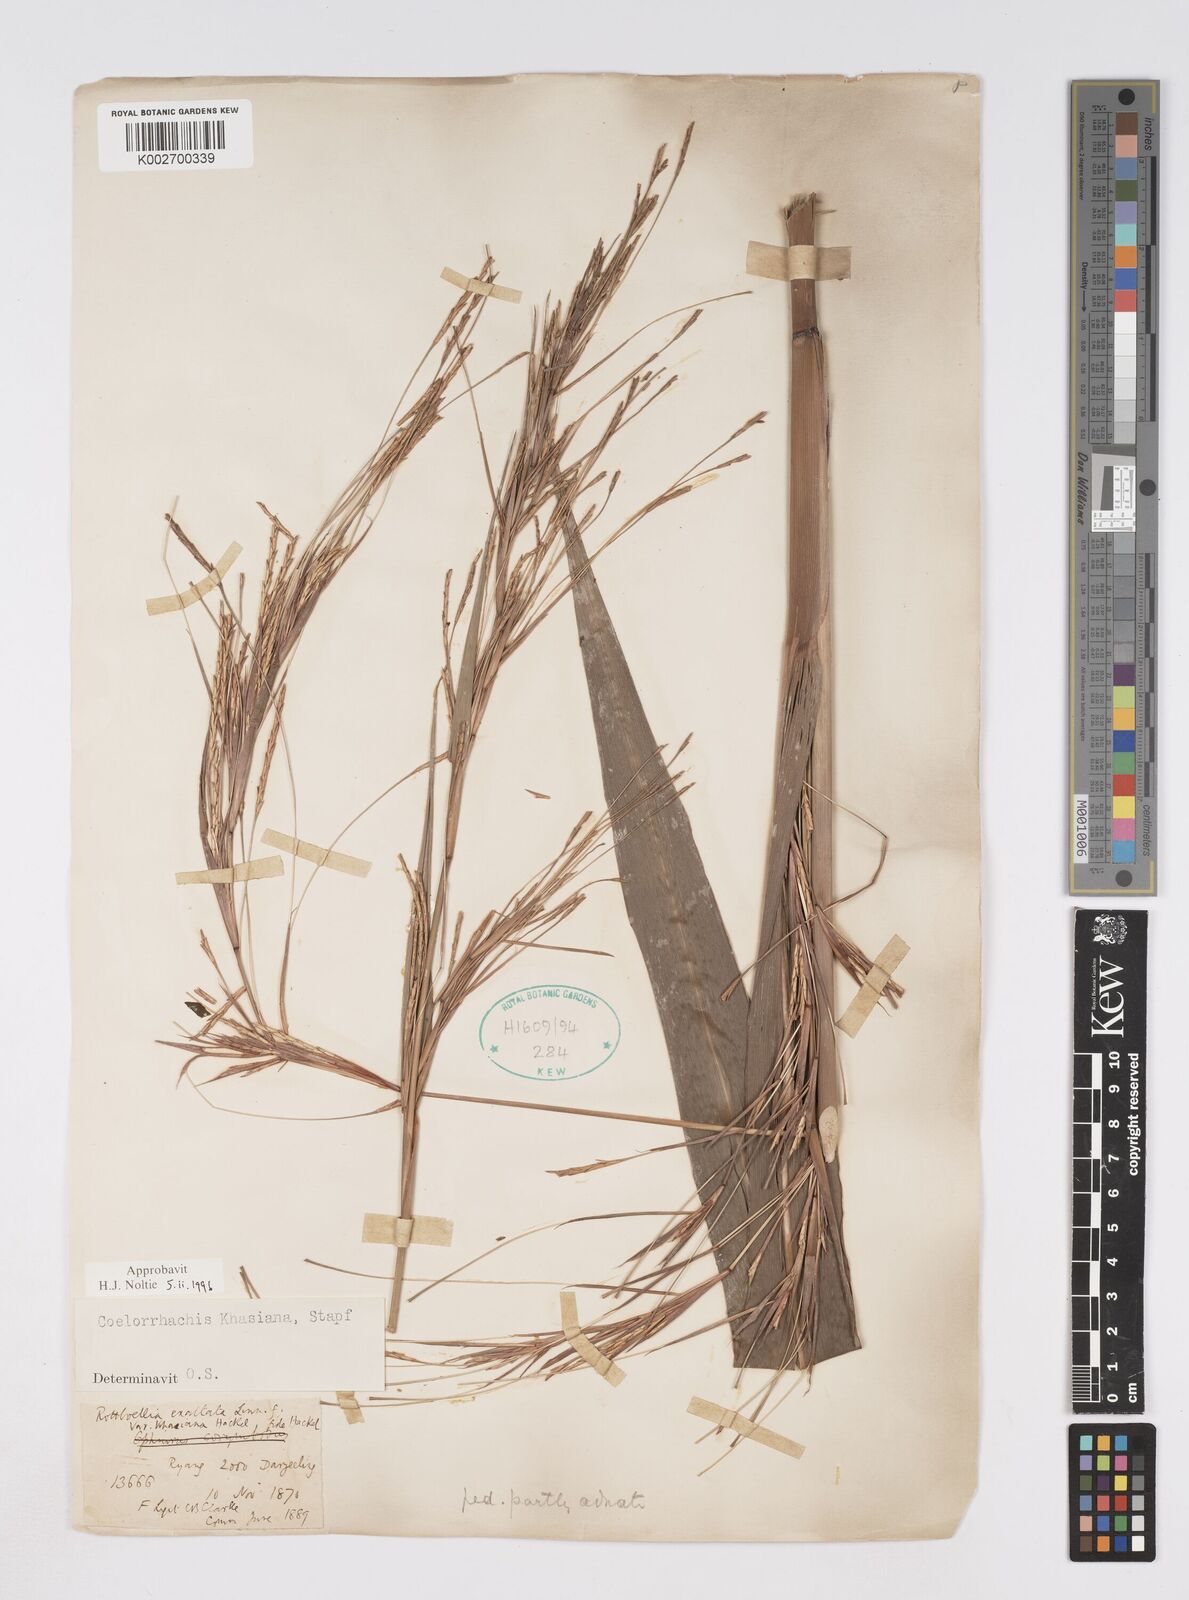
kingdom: Plantae
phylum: Tracheophyta
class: Liliopsida
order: Poales
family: Poaceae
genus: Rottboellia
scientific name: Rottboellia striata
